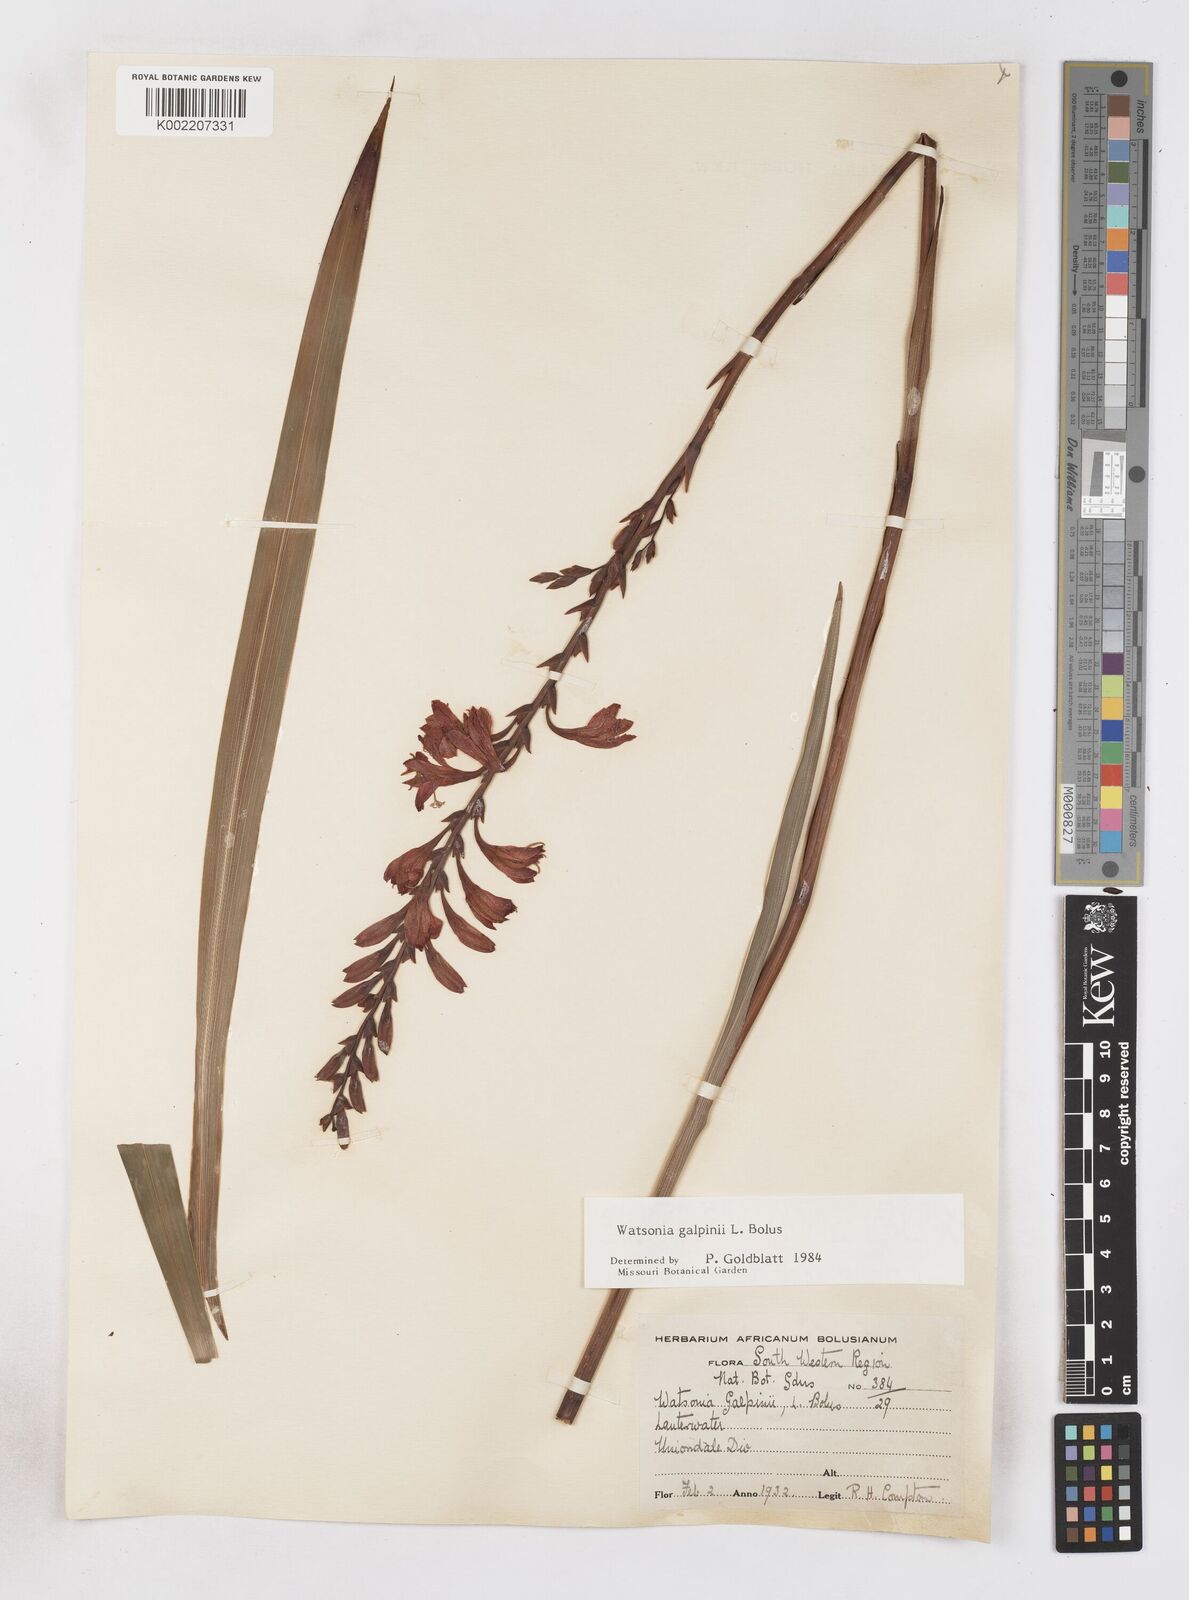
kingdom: Plantae
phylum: Tracheophyta
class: Liliopsida
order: Asparagales
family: Iridaceae
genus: Watsonia
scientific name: Watsonia galpinii
